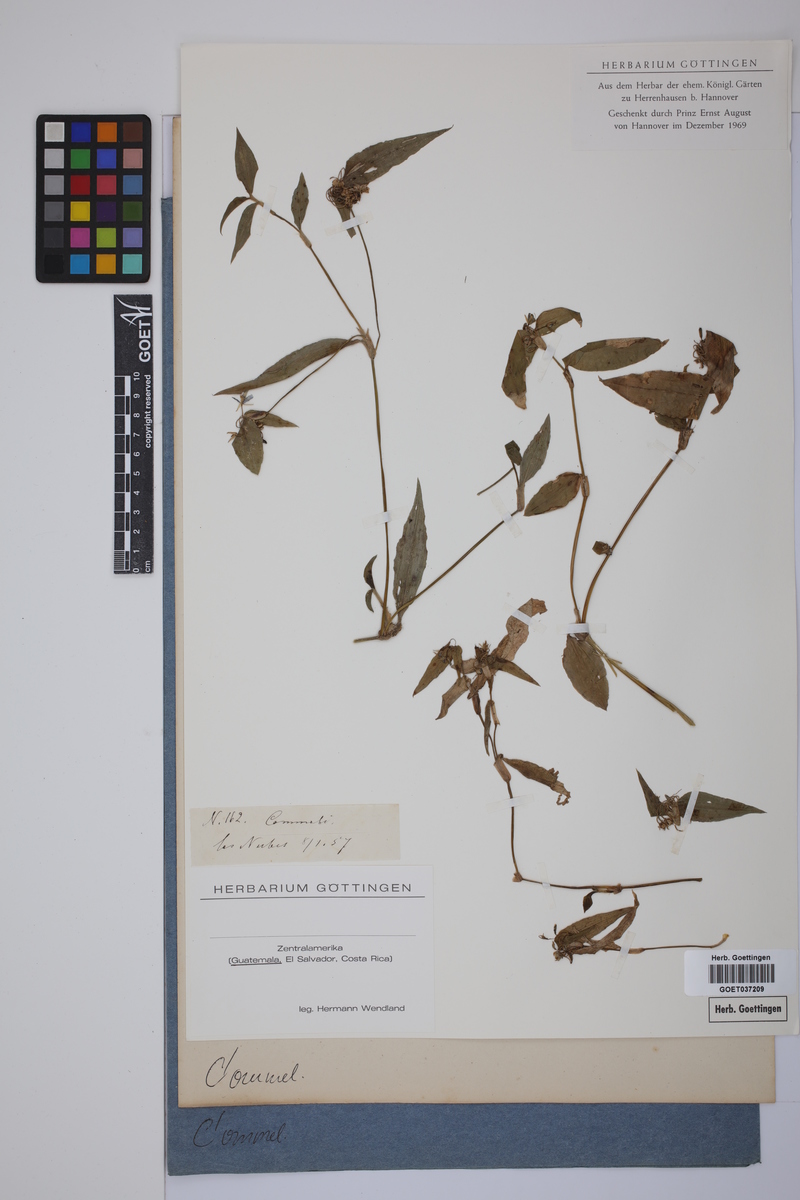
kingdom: Plantae
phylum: Tracheophyta
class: Liliopsida
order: Commelinales
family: Commelinaceae
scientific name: Commelinaceae
